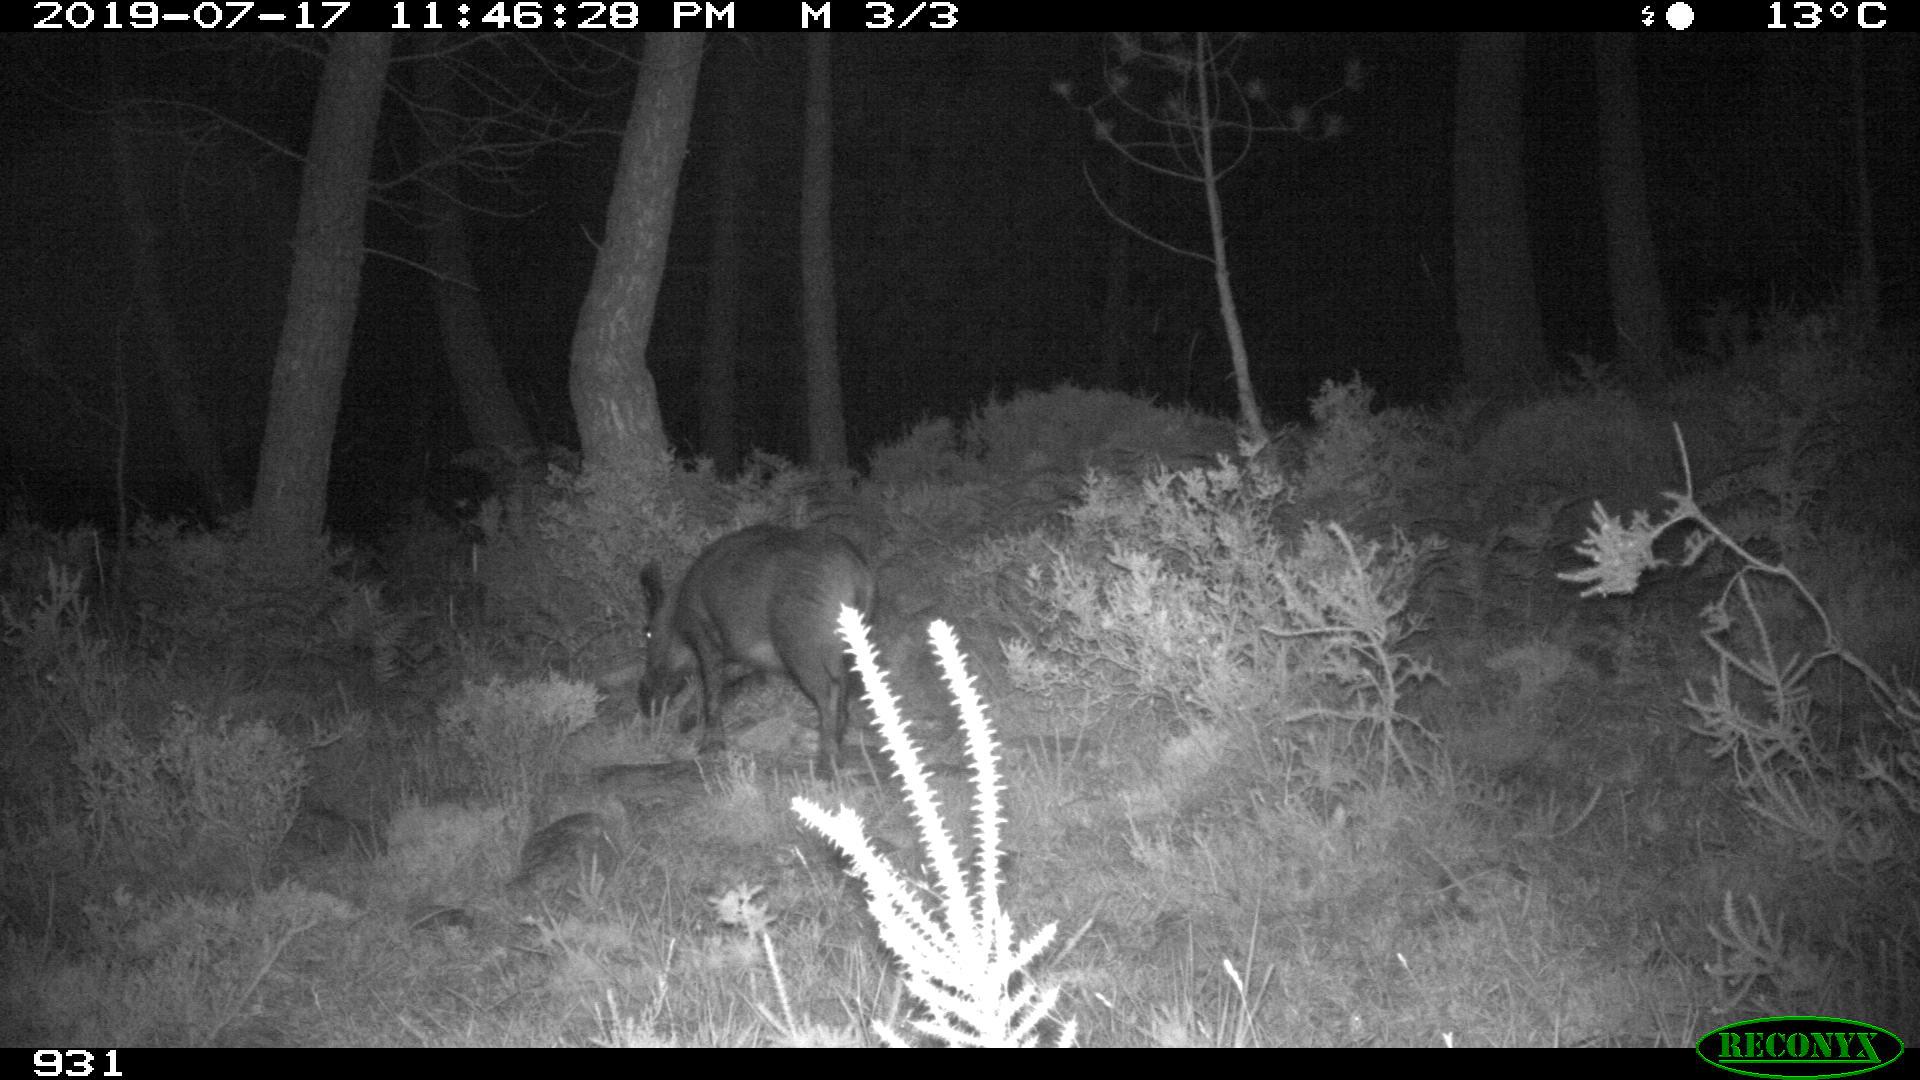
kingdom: Animalia
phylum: Chordata
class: Mammalia
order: Artiodactyla
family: Suidae
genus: Sus
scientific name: Sus scrofa
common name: Wild boar
